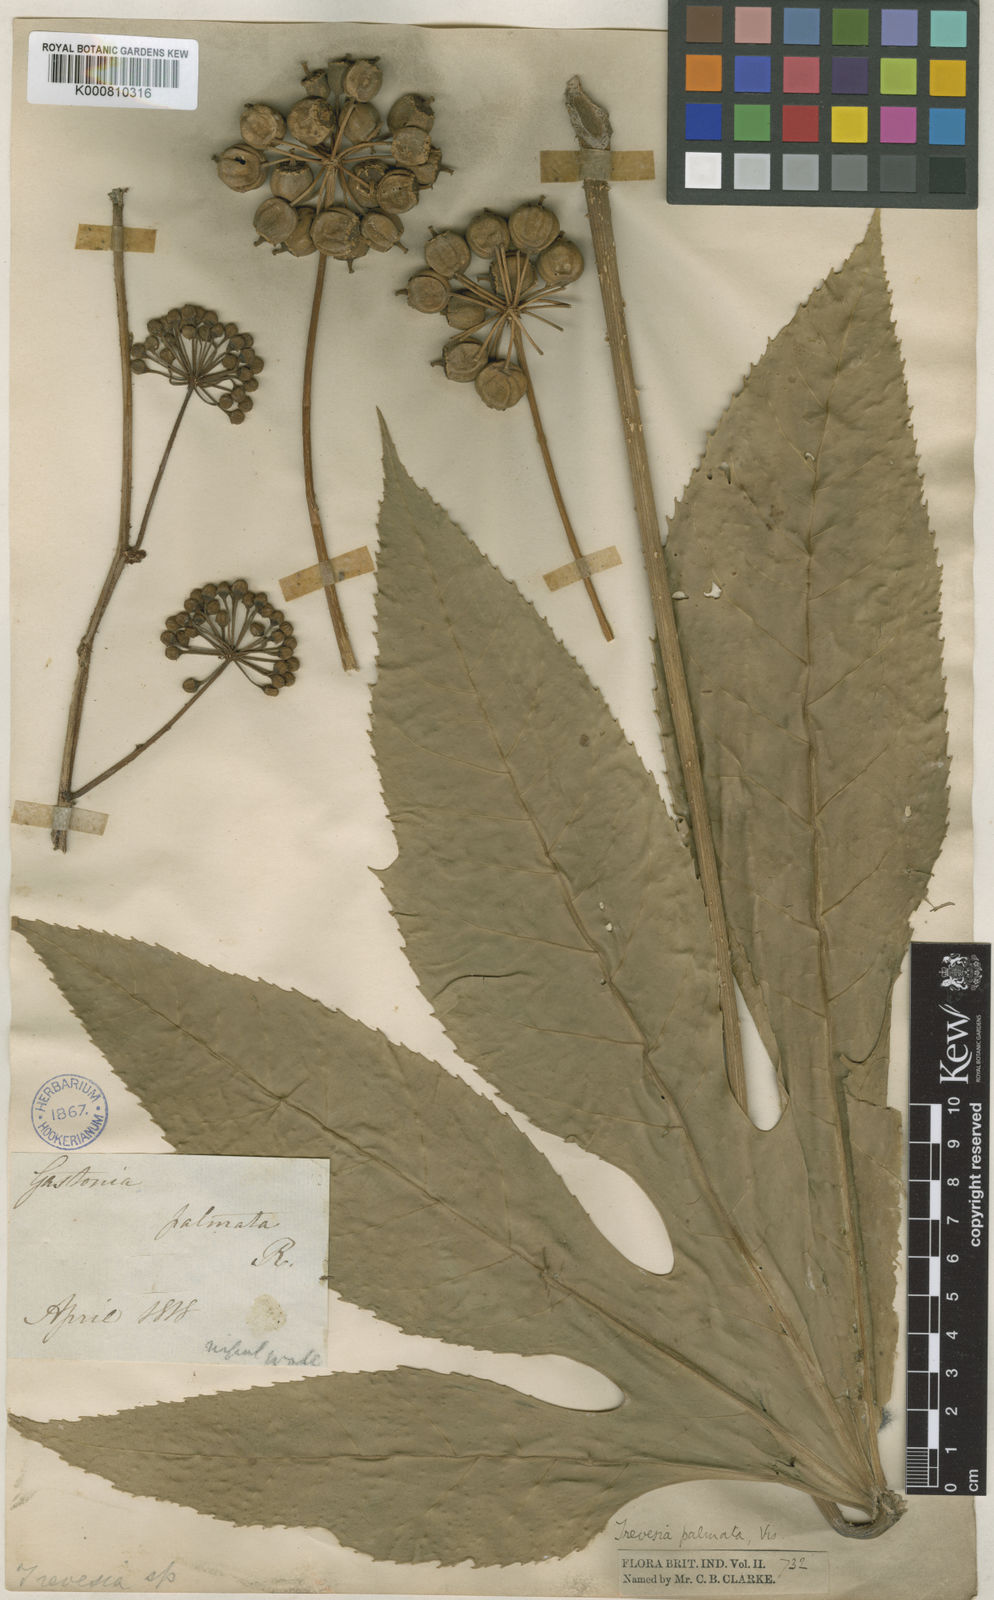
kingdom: Plantae
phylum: Tracheophyta
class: Magnoliopsida
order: Apiales
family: Araliaceae
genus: Trevesia
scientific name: Trevesia palmata
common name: Snowflakeplant
